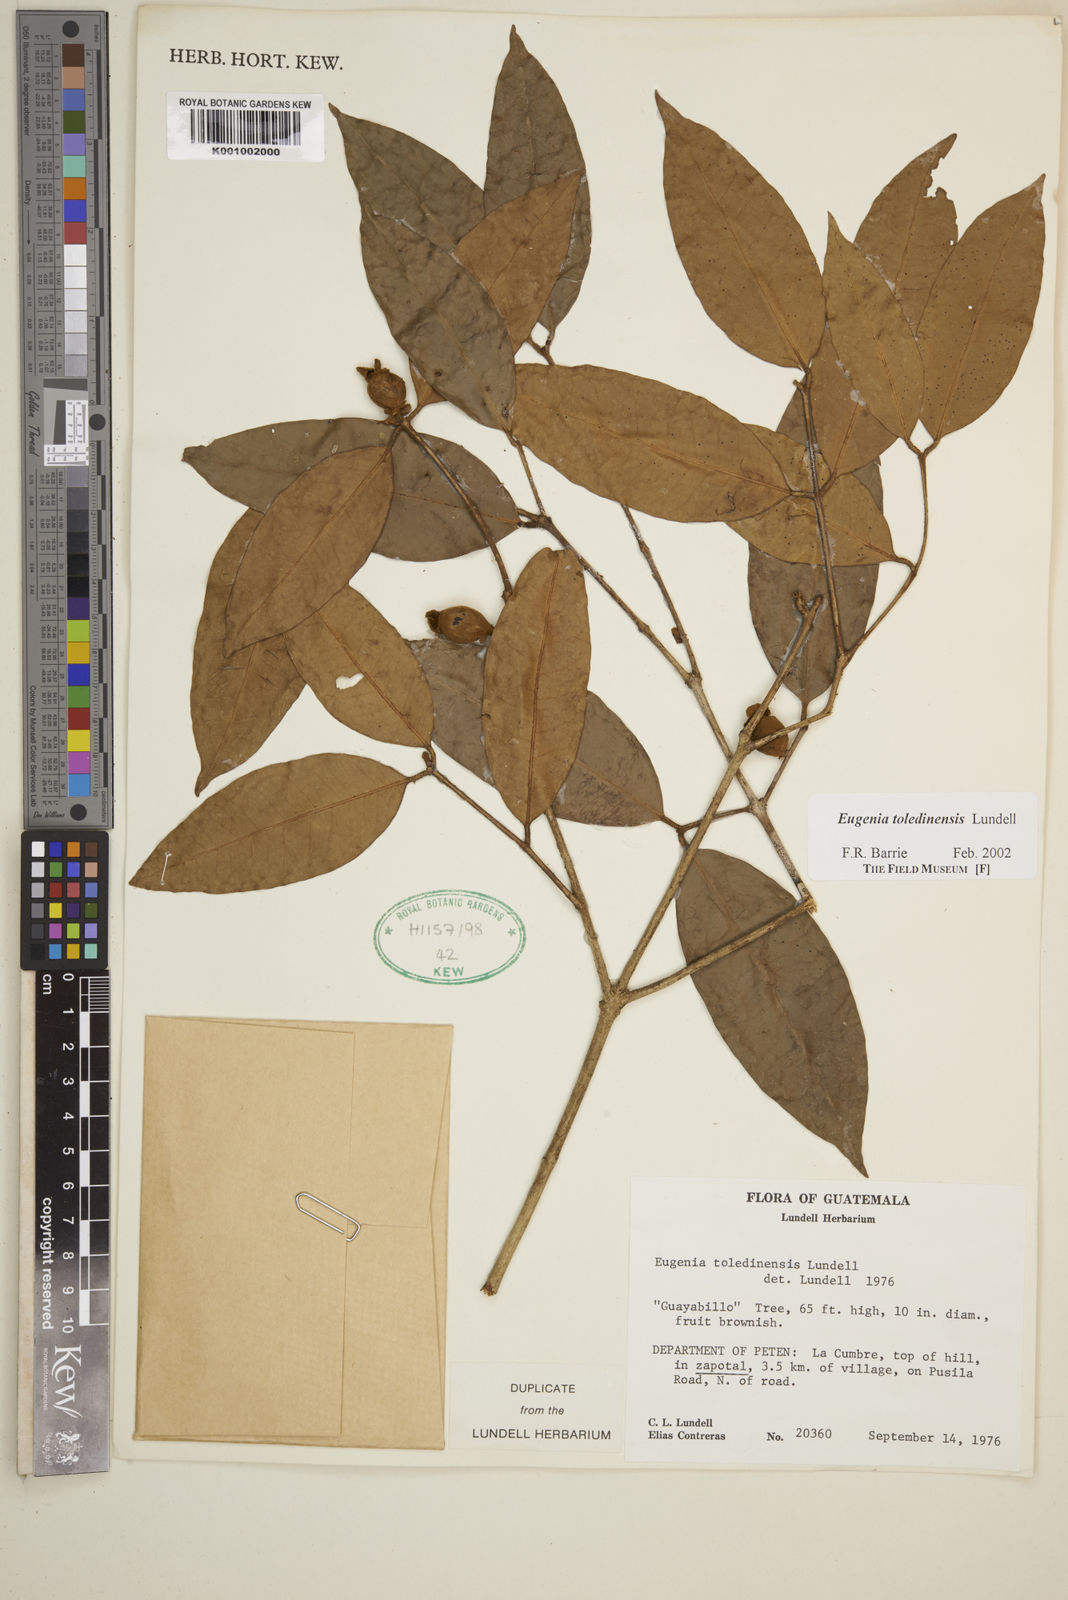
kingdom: Plantae
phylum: Tracheophyta
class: Magnoliopsida
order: Myrtales
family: Myrtaceae
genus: Eugenia
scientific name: Eugenia toledinensis
